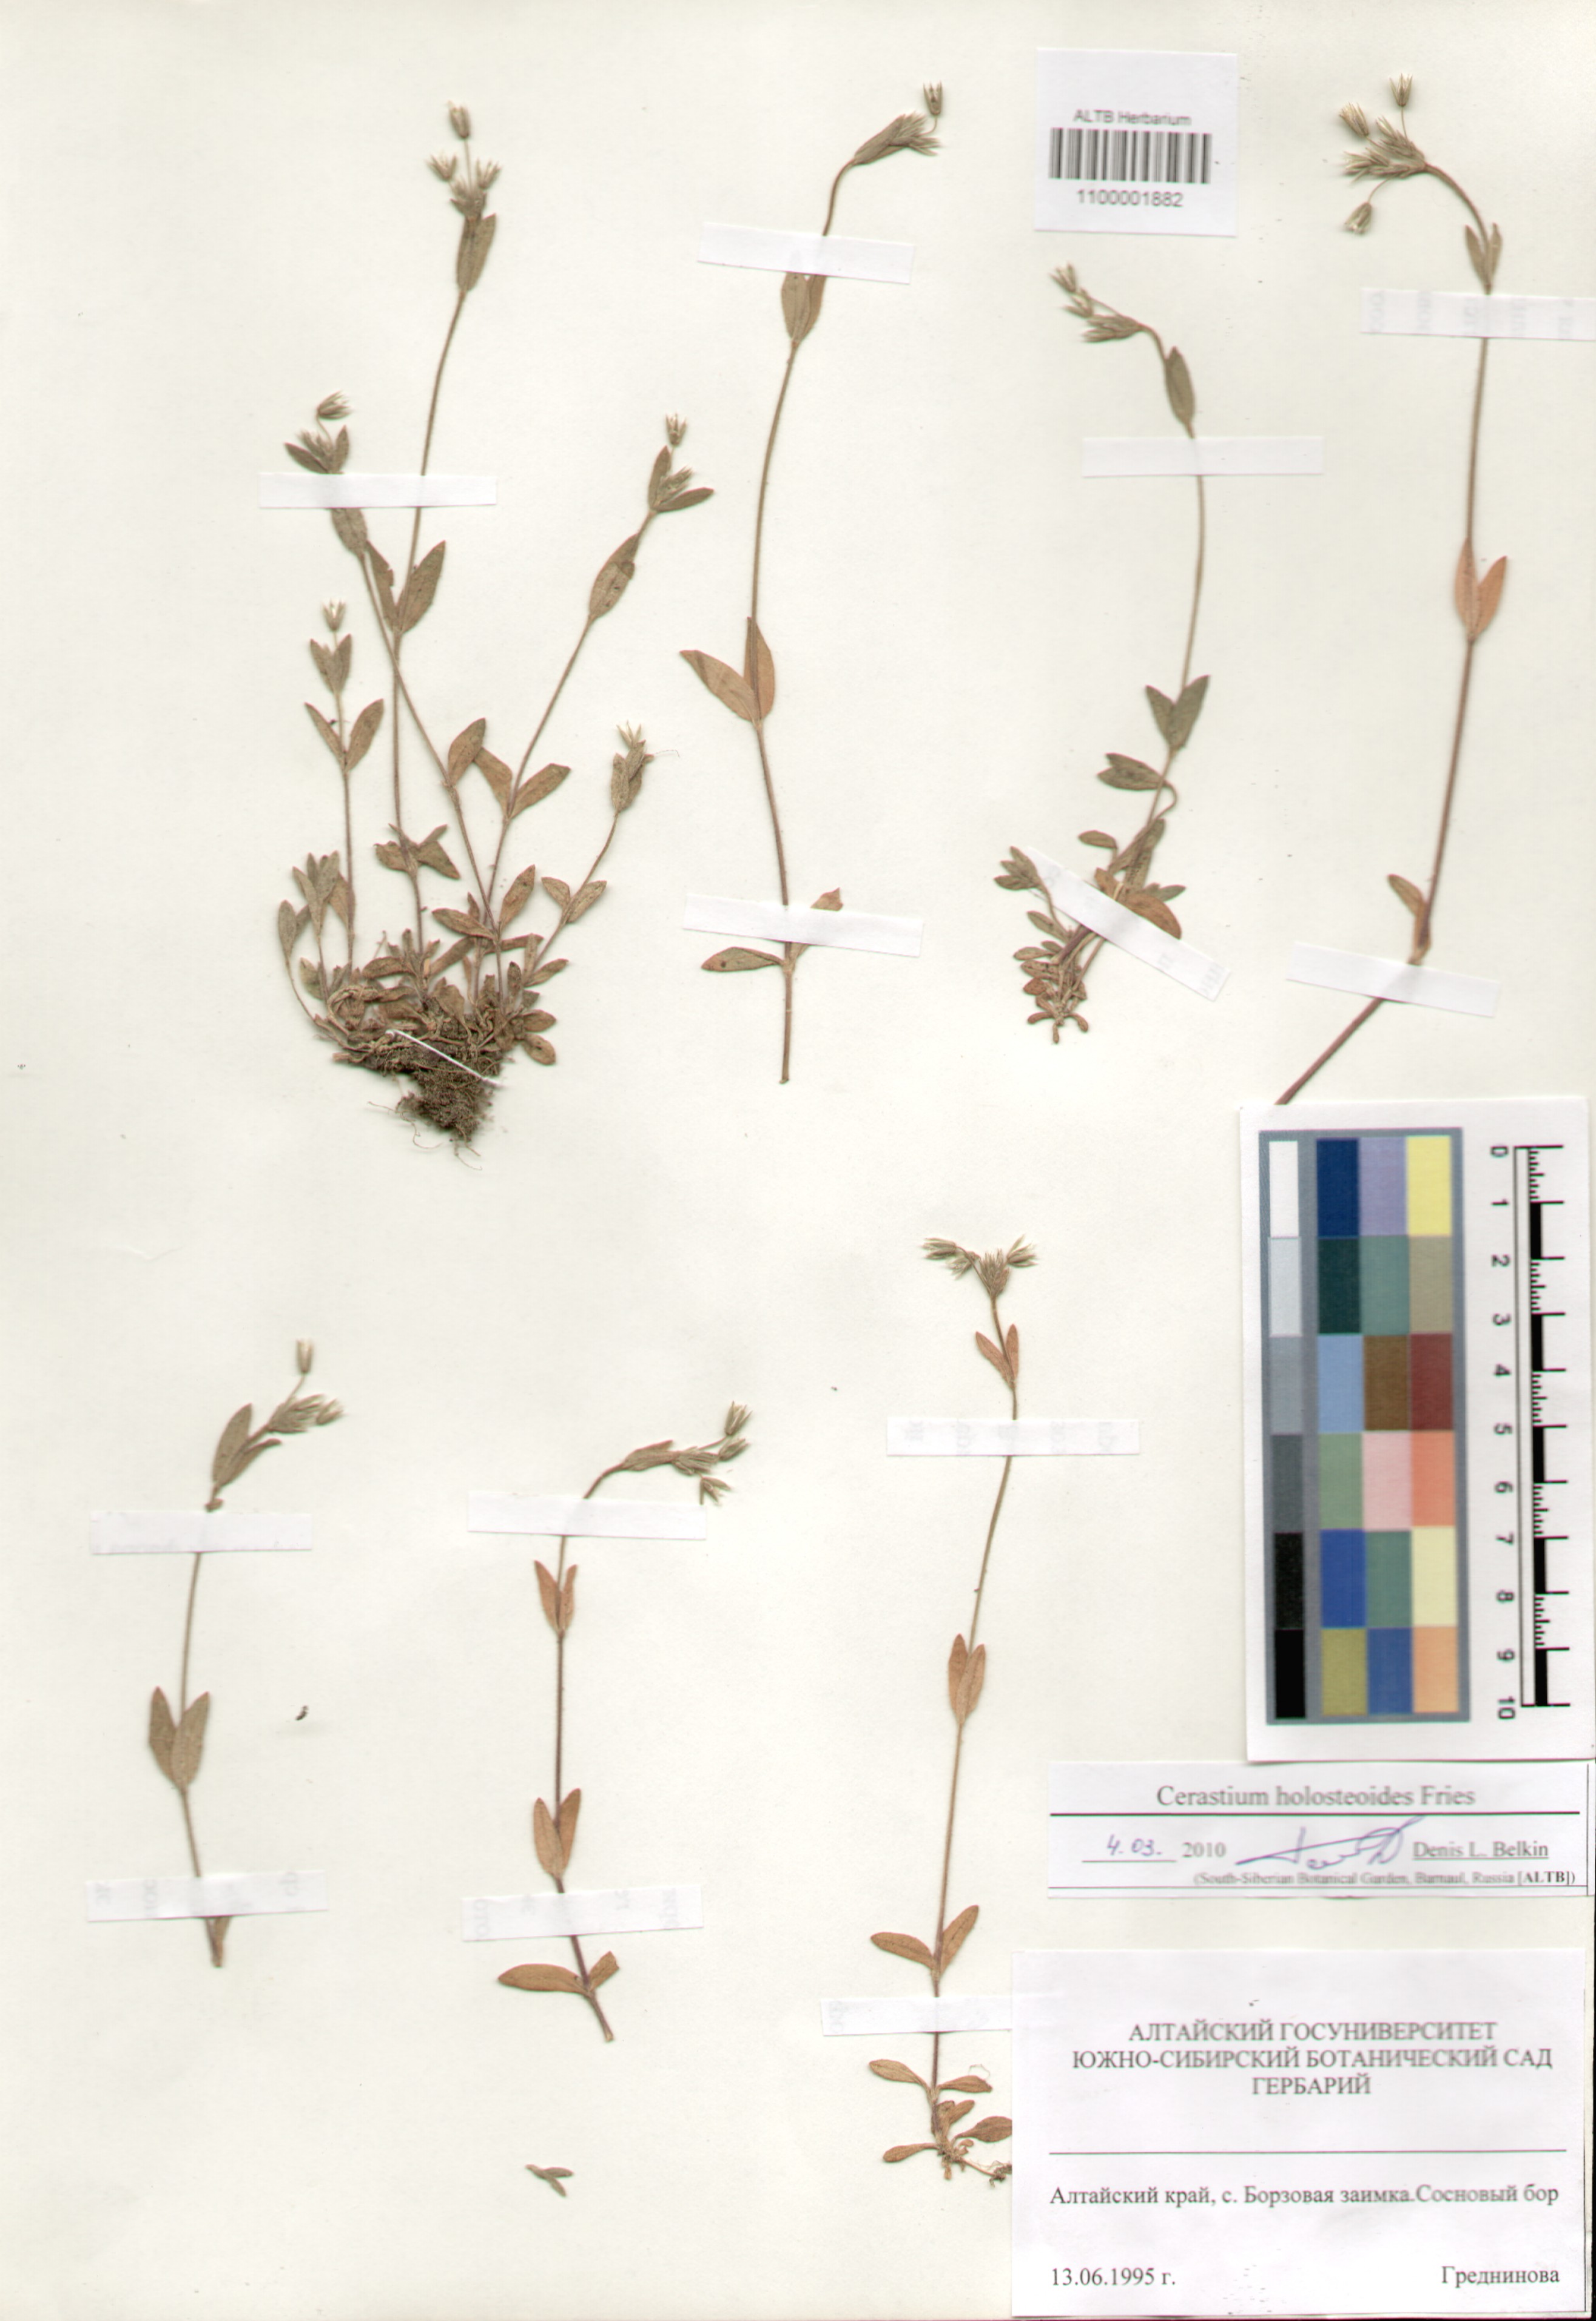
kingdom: Plantae
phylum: Tracheophyta
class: Magnoliopsida
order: Caryophyllales
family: Caryophyllaceae
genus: Cerastium
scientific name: Cerastium holosteoides
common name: Big chickweed
